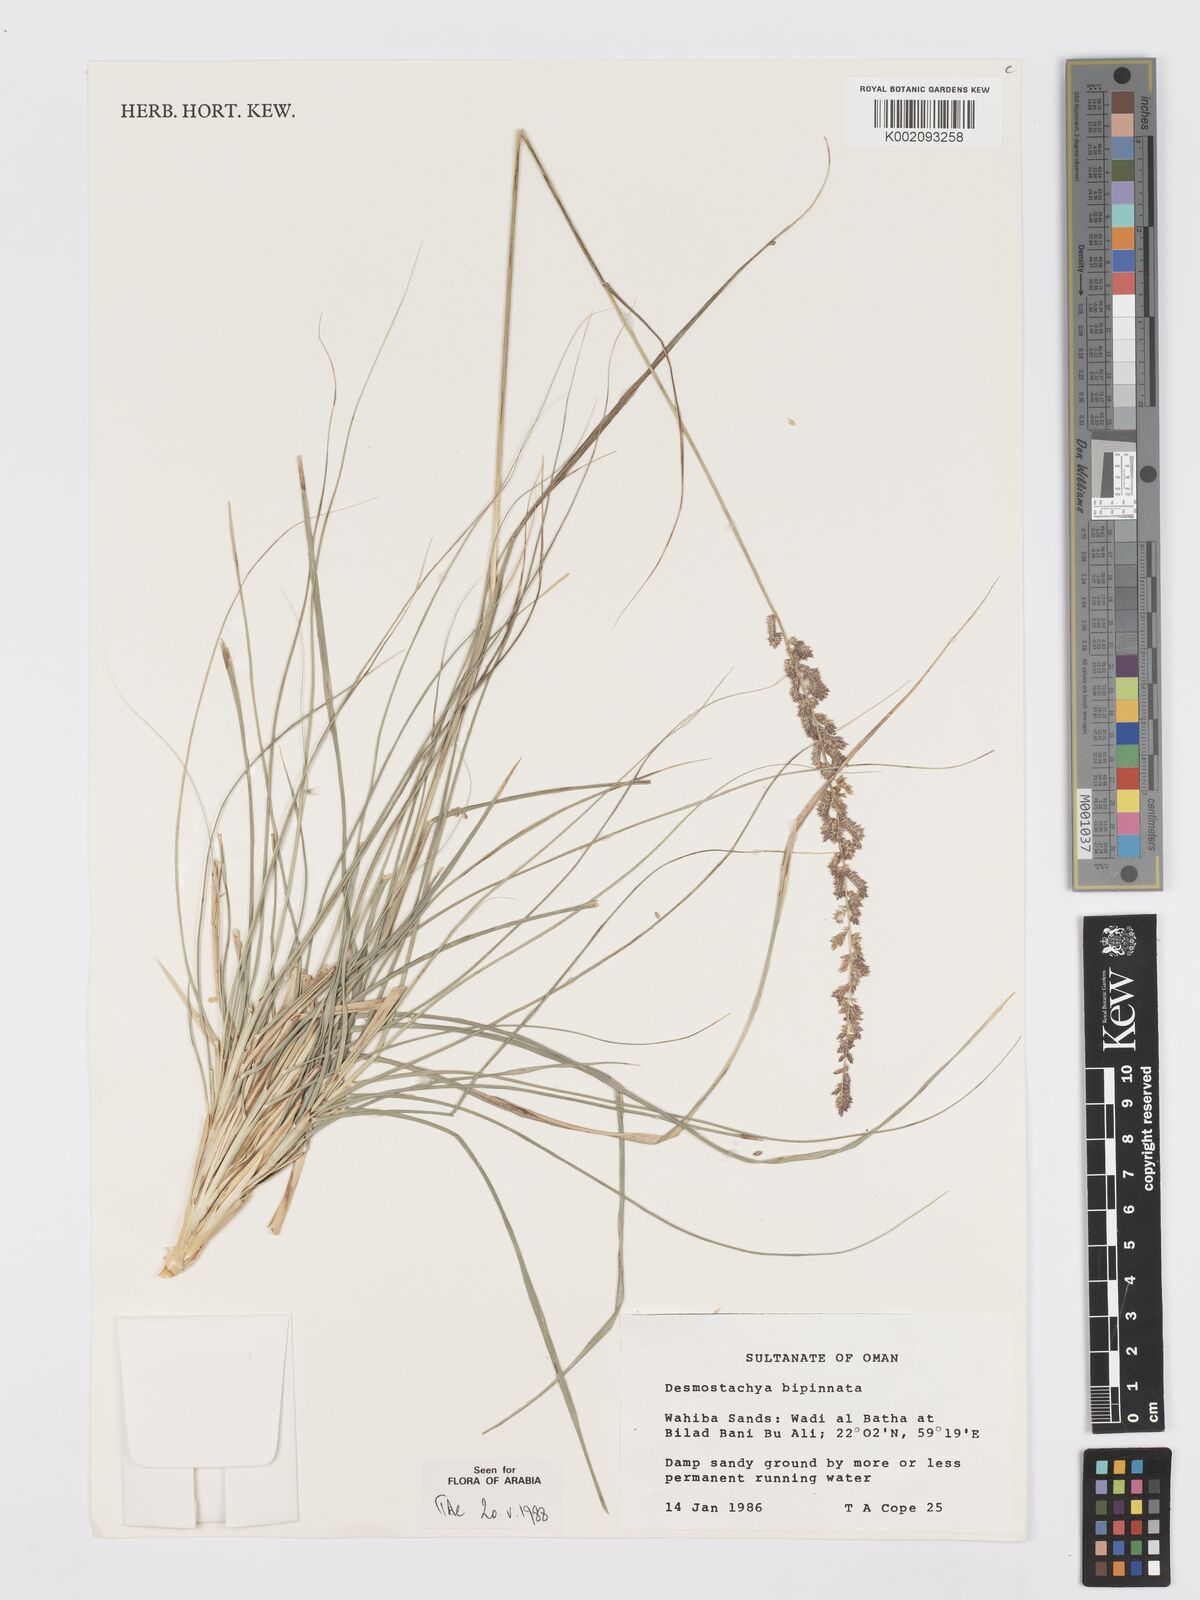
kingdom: Plantae
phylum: Tracheophyta
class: Liliopsida
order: Poales
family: Poaceae
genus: Desmostachya
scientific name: Desmostachya bipinnata
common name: Crowfoot grass
